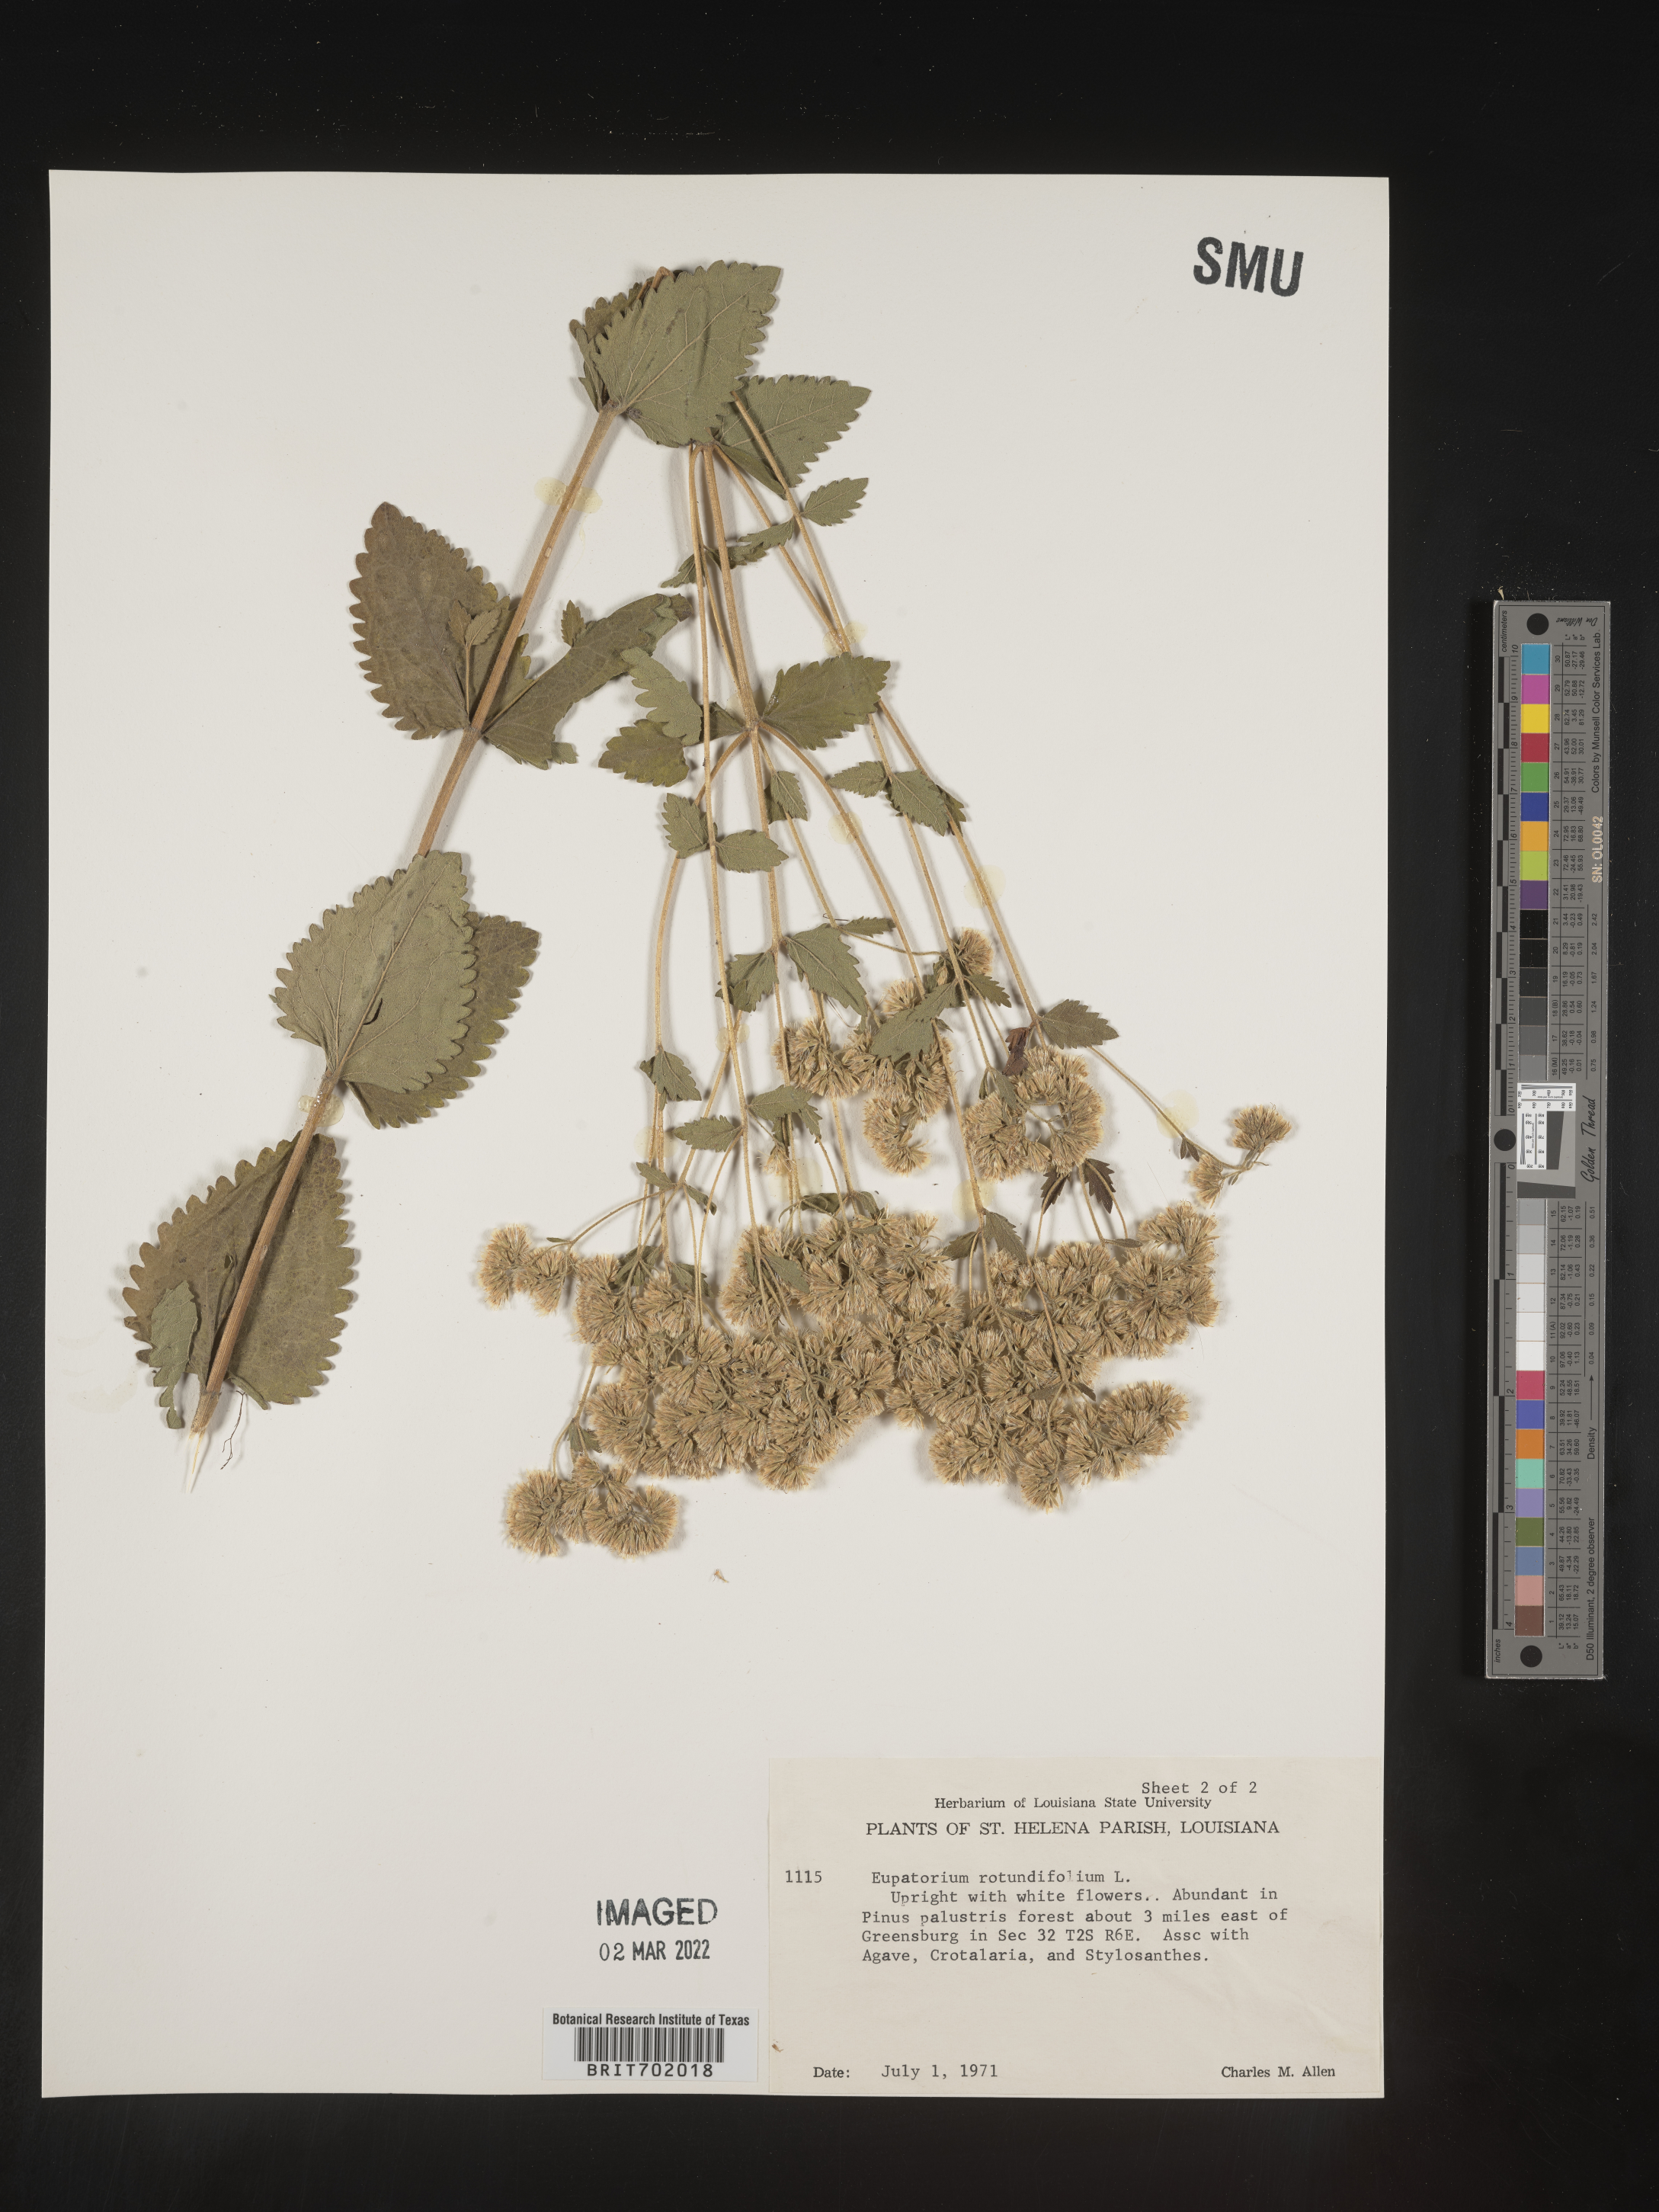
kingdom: Plantae
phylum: Tracheophyta
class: Magnoliopsida
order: Asterales
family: Asteraceae
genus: Eupatorium
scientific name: Eupatorium rotundifolium
